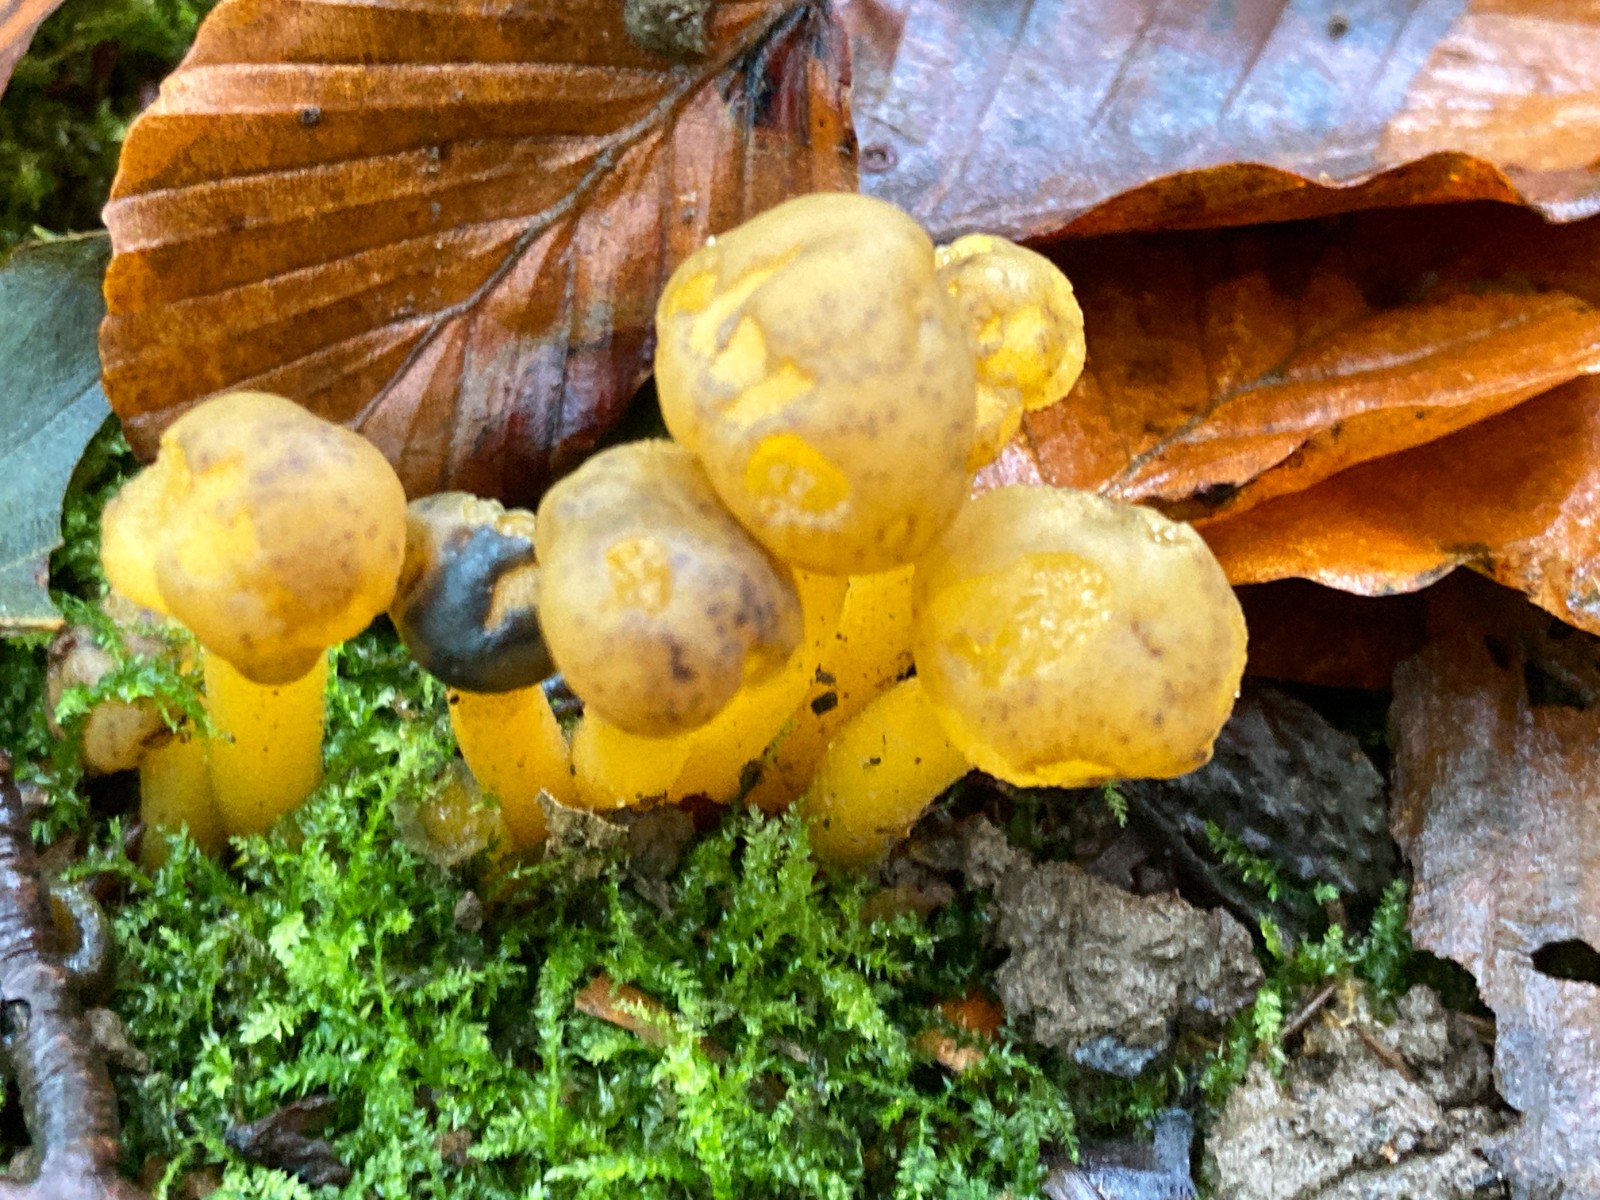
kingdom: Fungi
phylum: Ascomycota
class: Leotiomycetes
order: Leotiales
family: Leotiaceae
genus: Leotia
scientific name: Leotia lubrica
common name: ravsvamp
